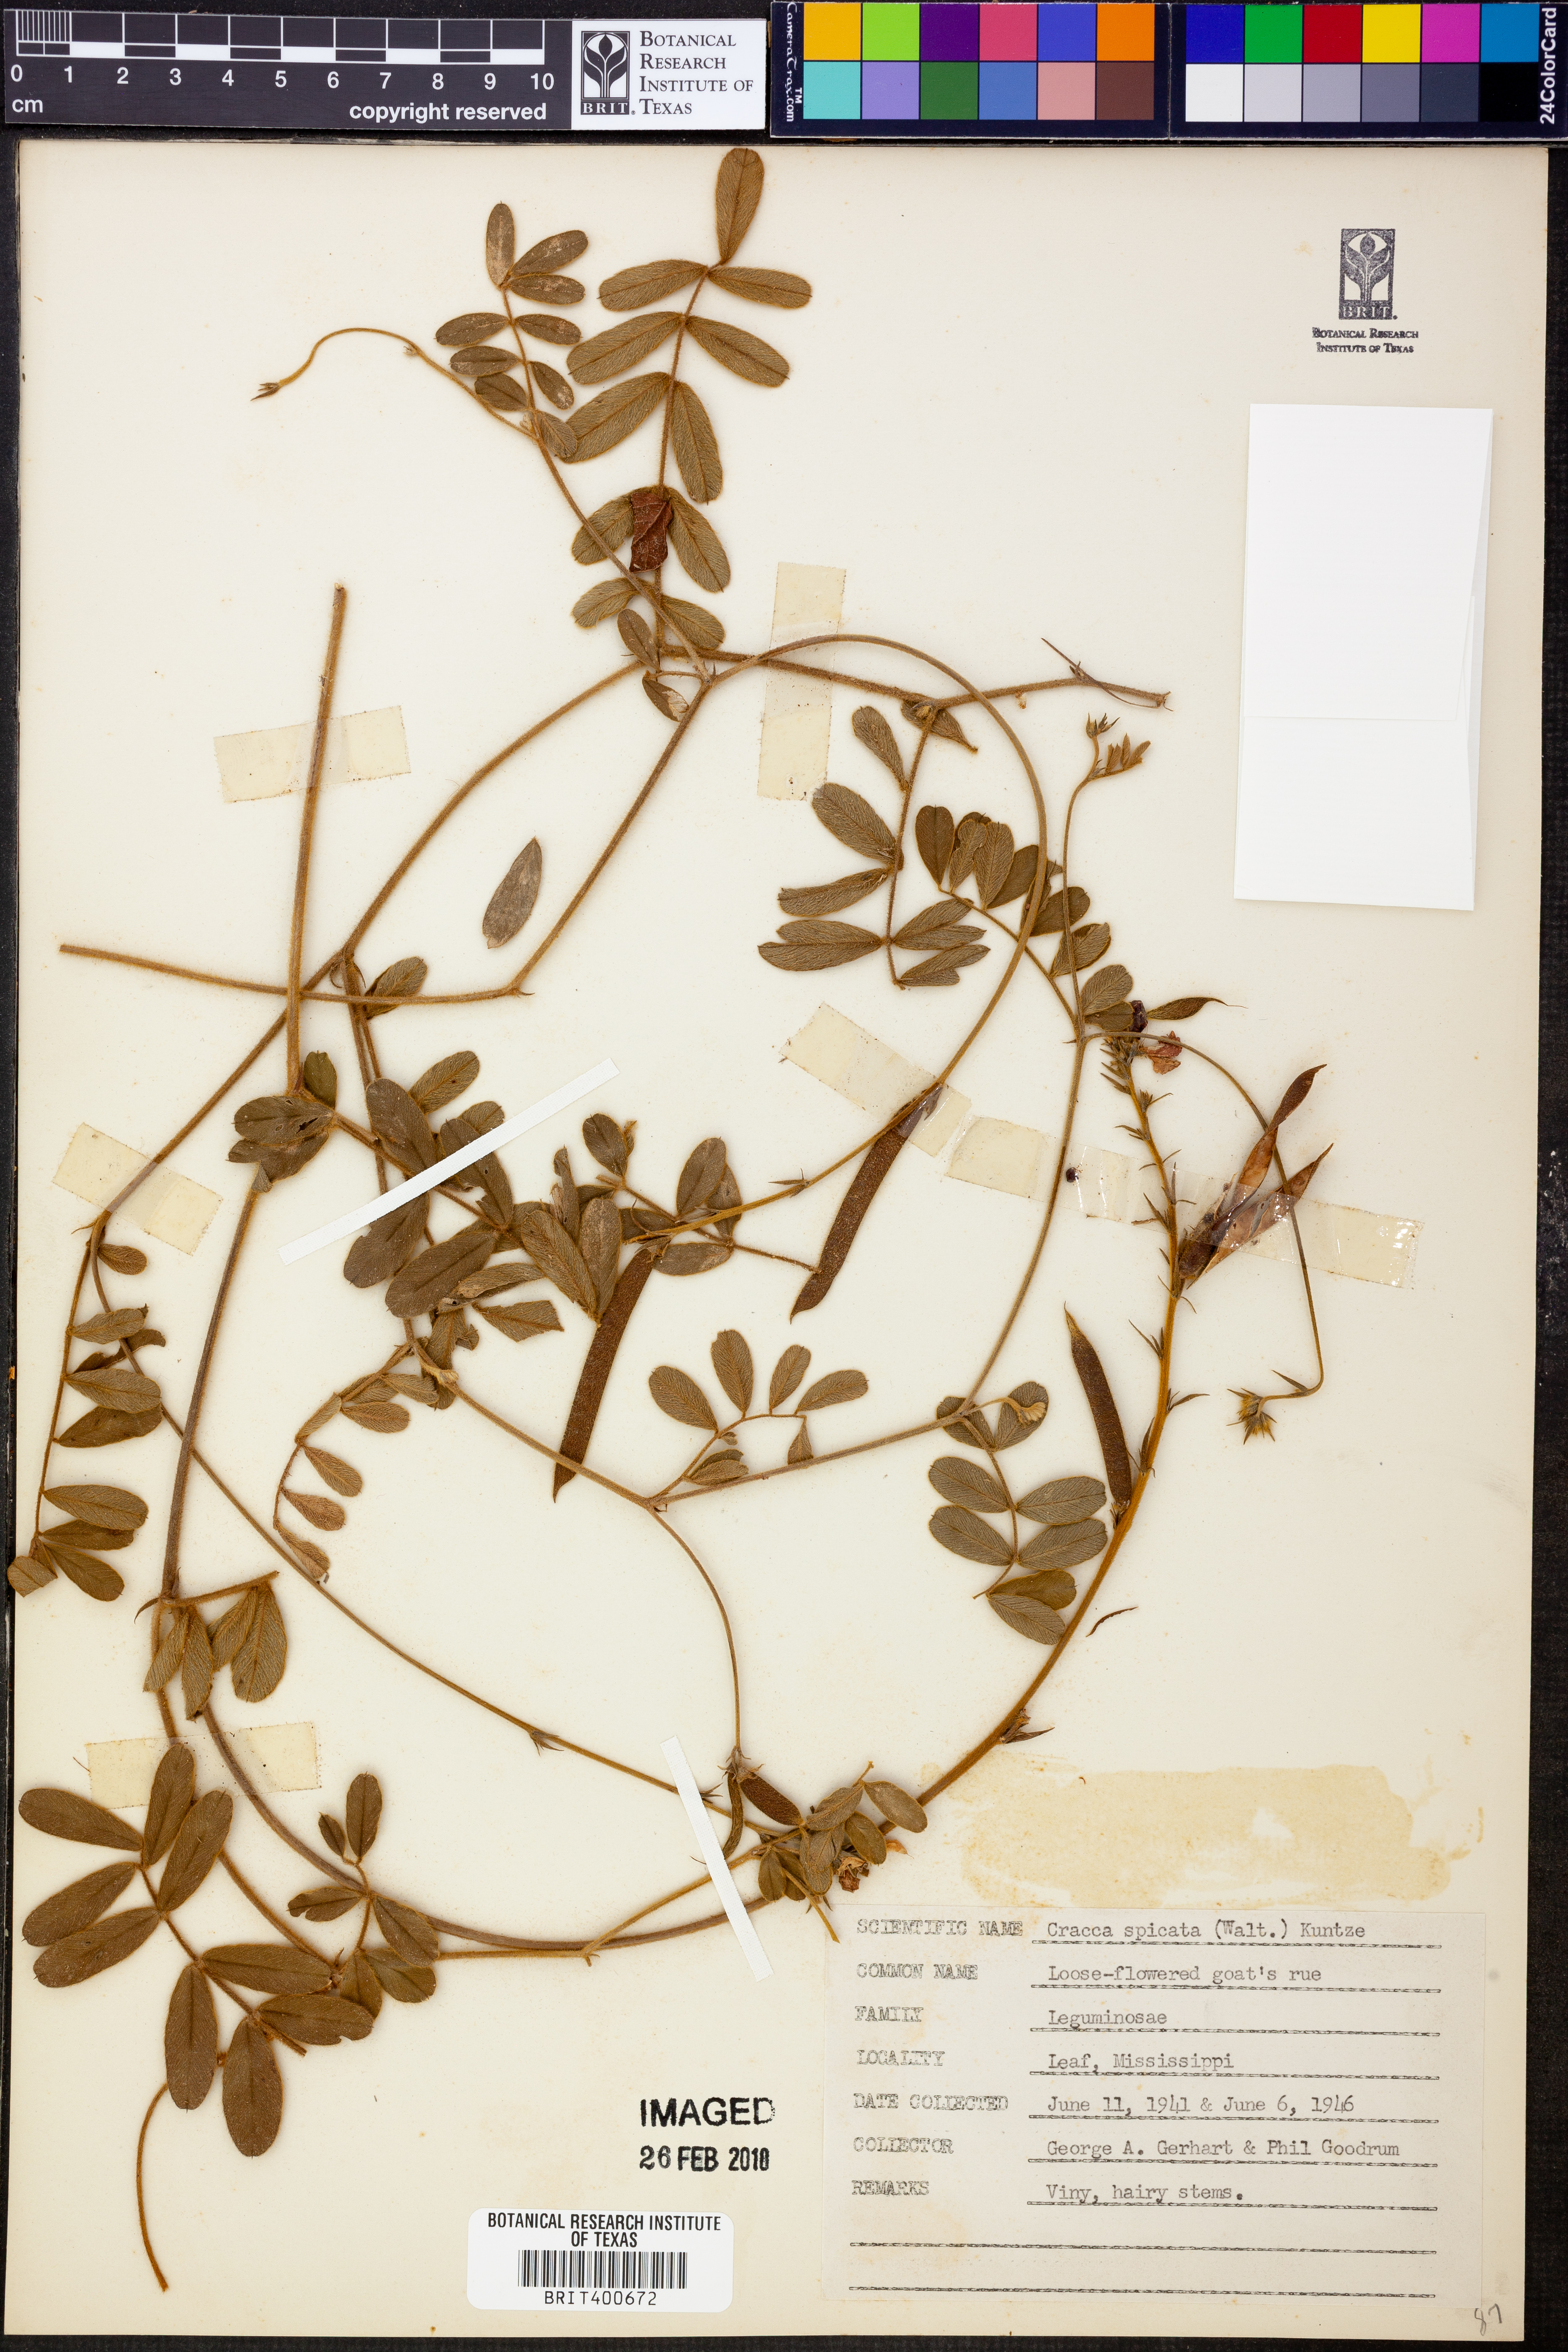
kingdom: Plantae
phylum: Tracheophyta
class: Magnoliopsida
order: Fabales
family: Fabaceae
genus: Tephrosia
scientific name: Tephrosia spicata
